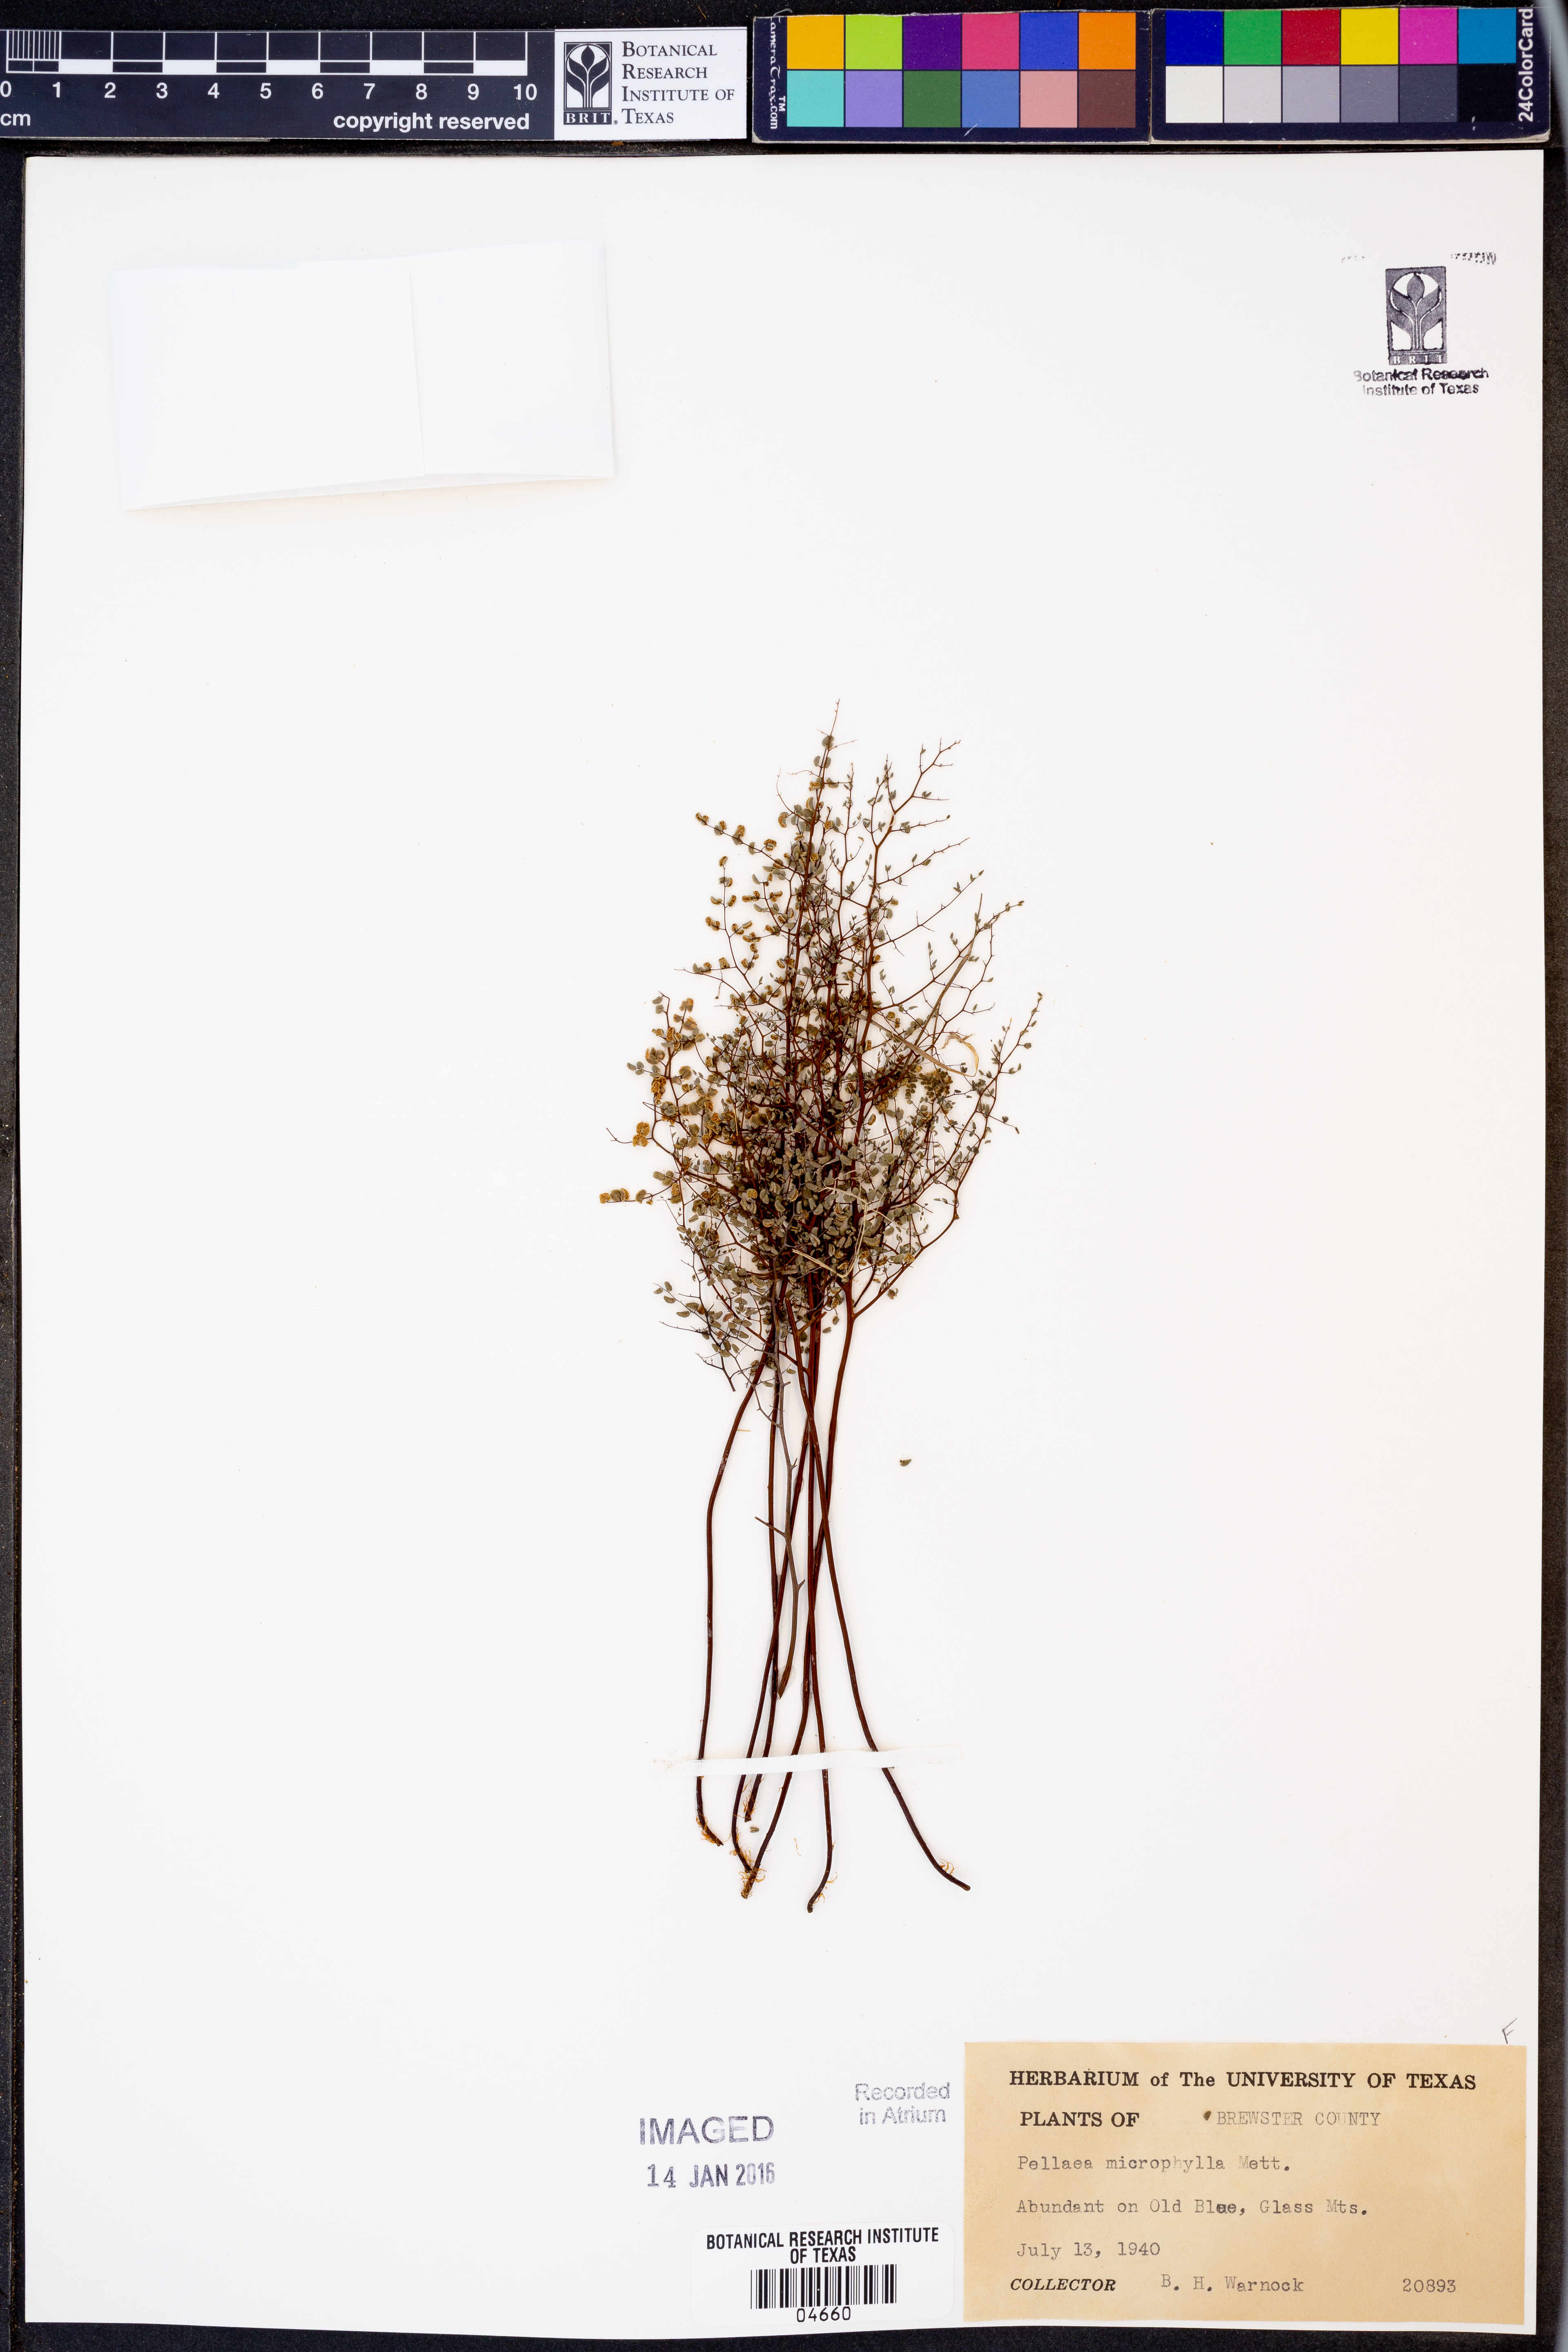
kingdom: Plantae
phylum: Tracheophyta
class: Polypodiopsida
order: Polypodiales
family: Pteridaceae
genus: Lytoneuron
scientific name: Lytoneuron microphyllum
